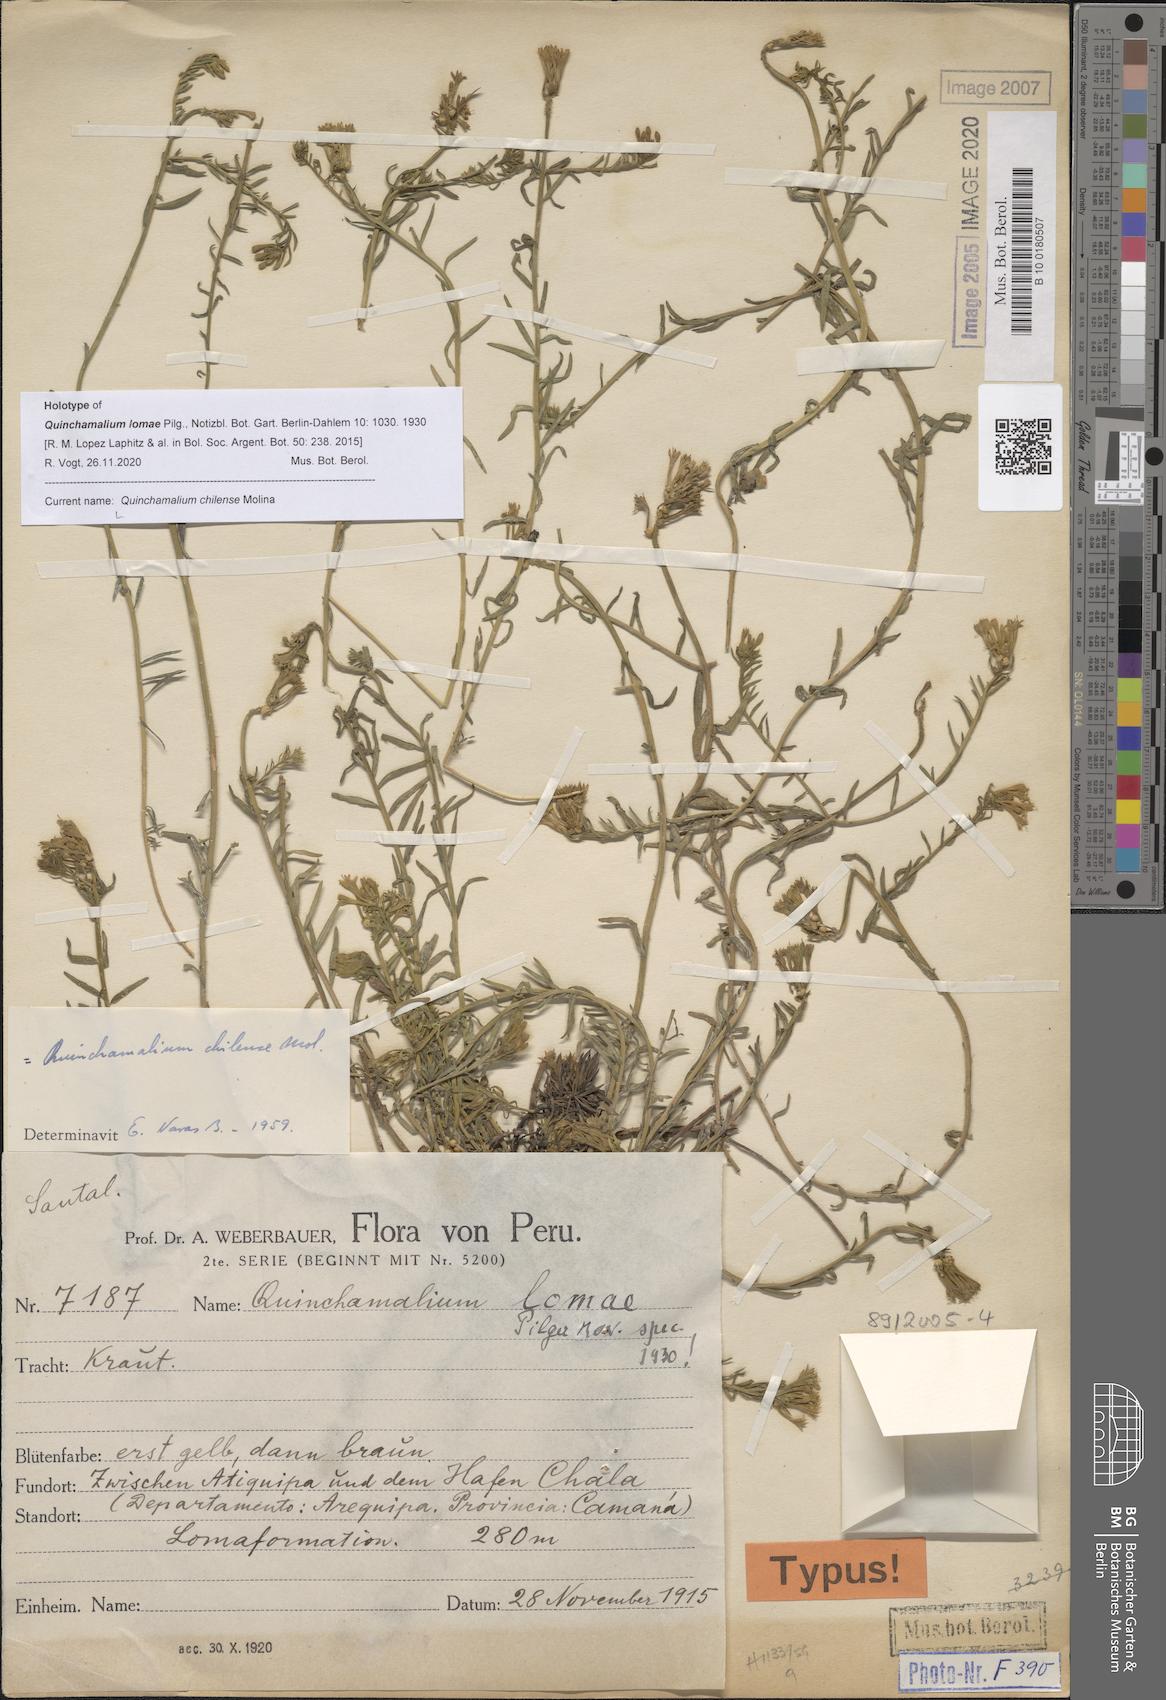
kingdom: Plantae
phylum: Tracheophyta
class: Magnoliopsida
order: Santalales
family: Schoepfiaceae
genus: Quinchamalium
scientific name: Quinchamalium chilense
